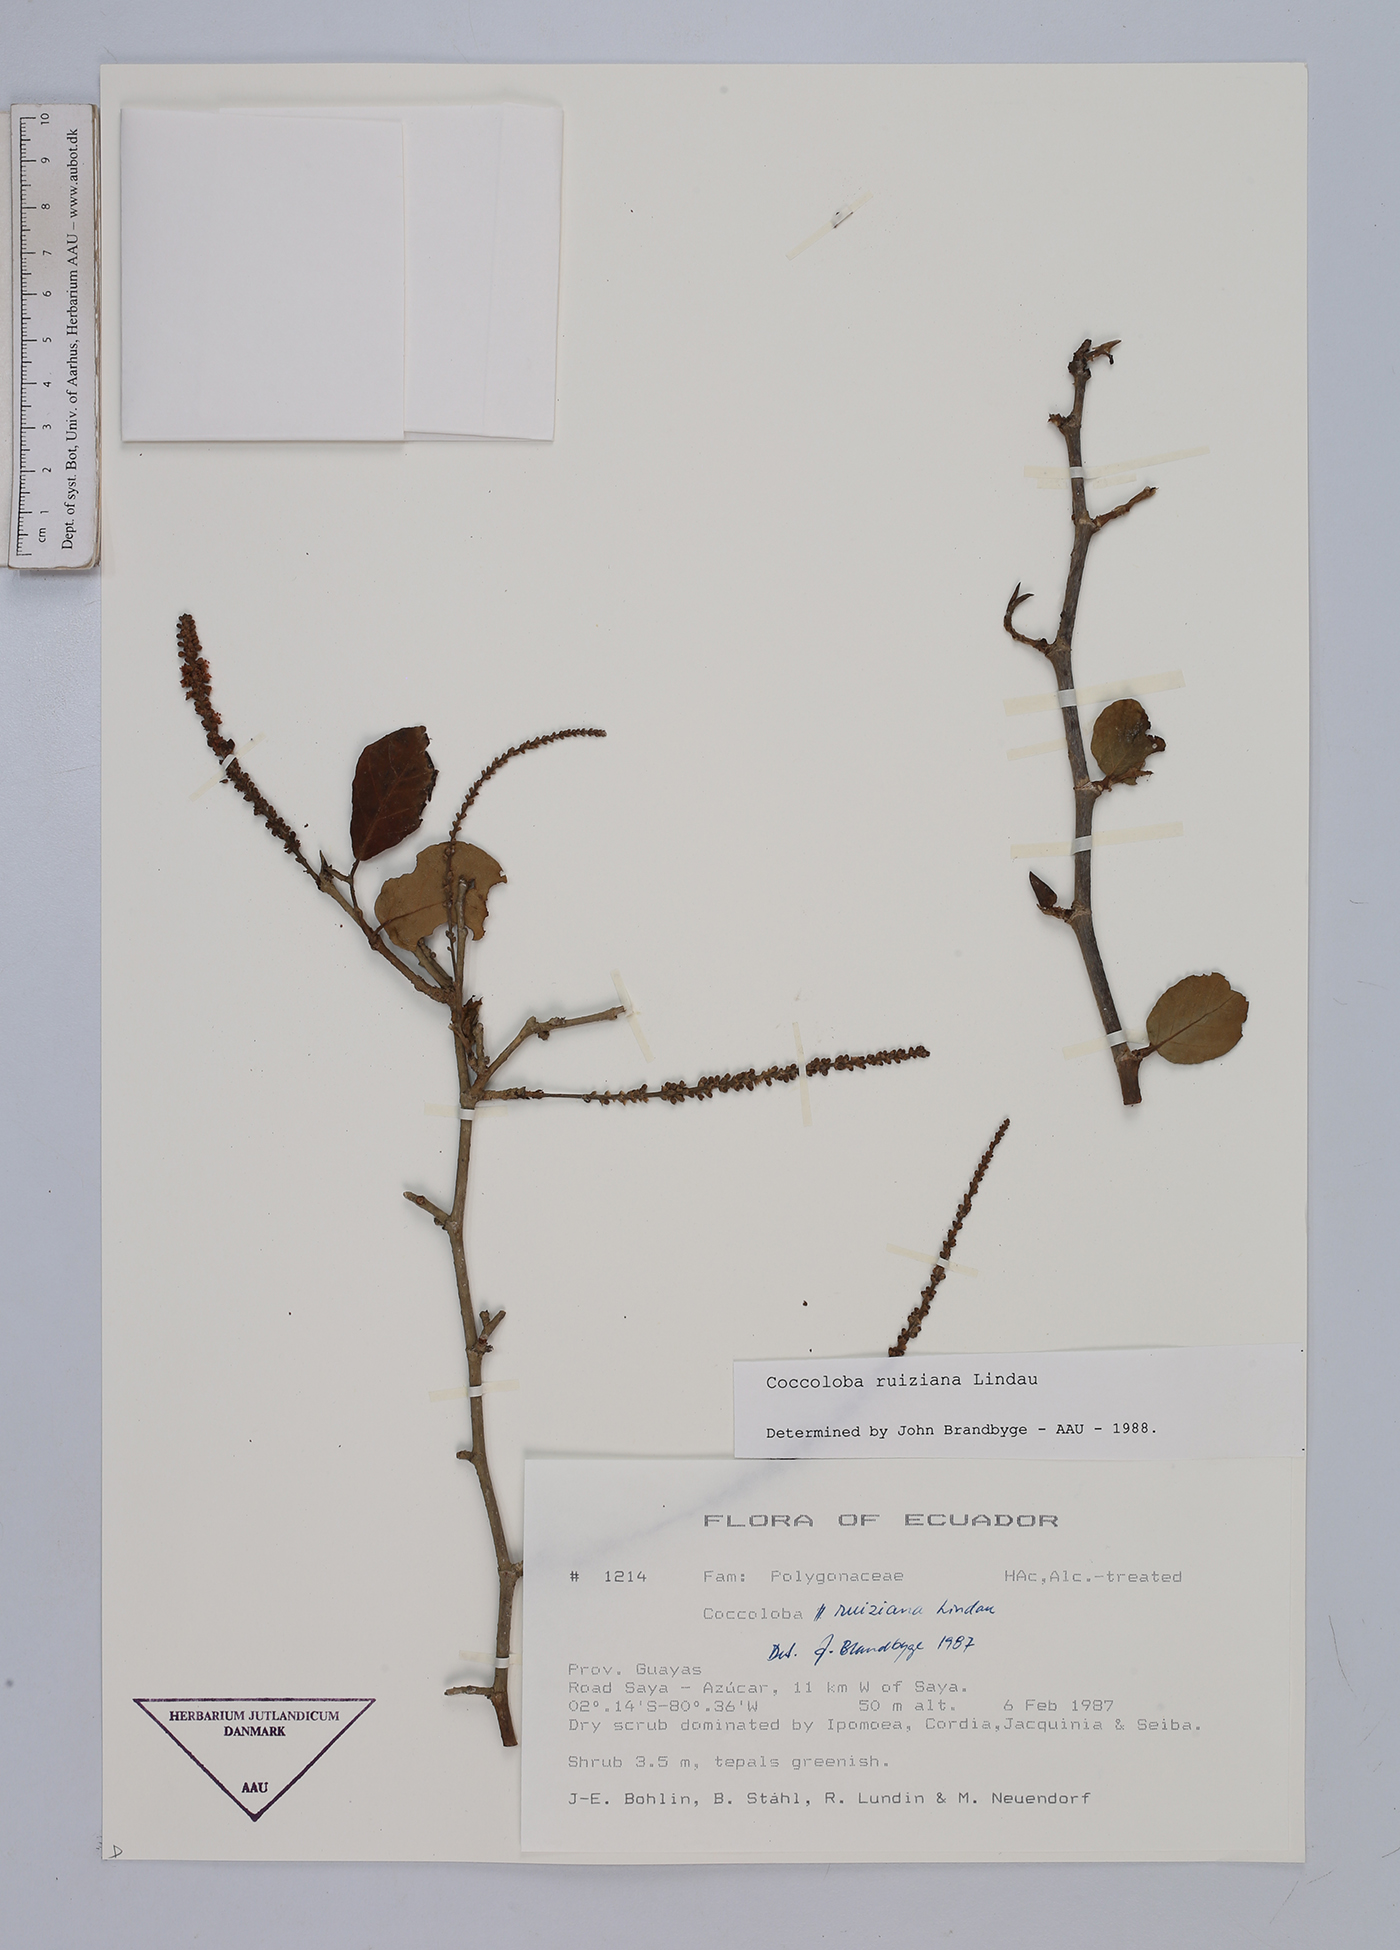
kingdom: Plantae
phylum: Tracheophyta
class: Magnoliopsida
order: Caryophyllales
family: Polygonaceae
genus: Coccoloba
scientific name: Coccoloba ruiziana
